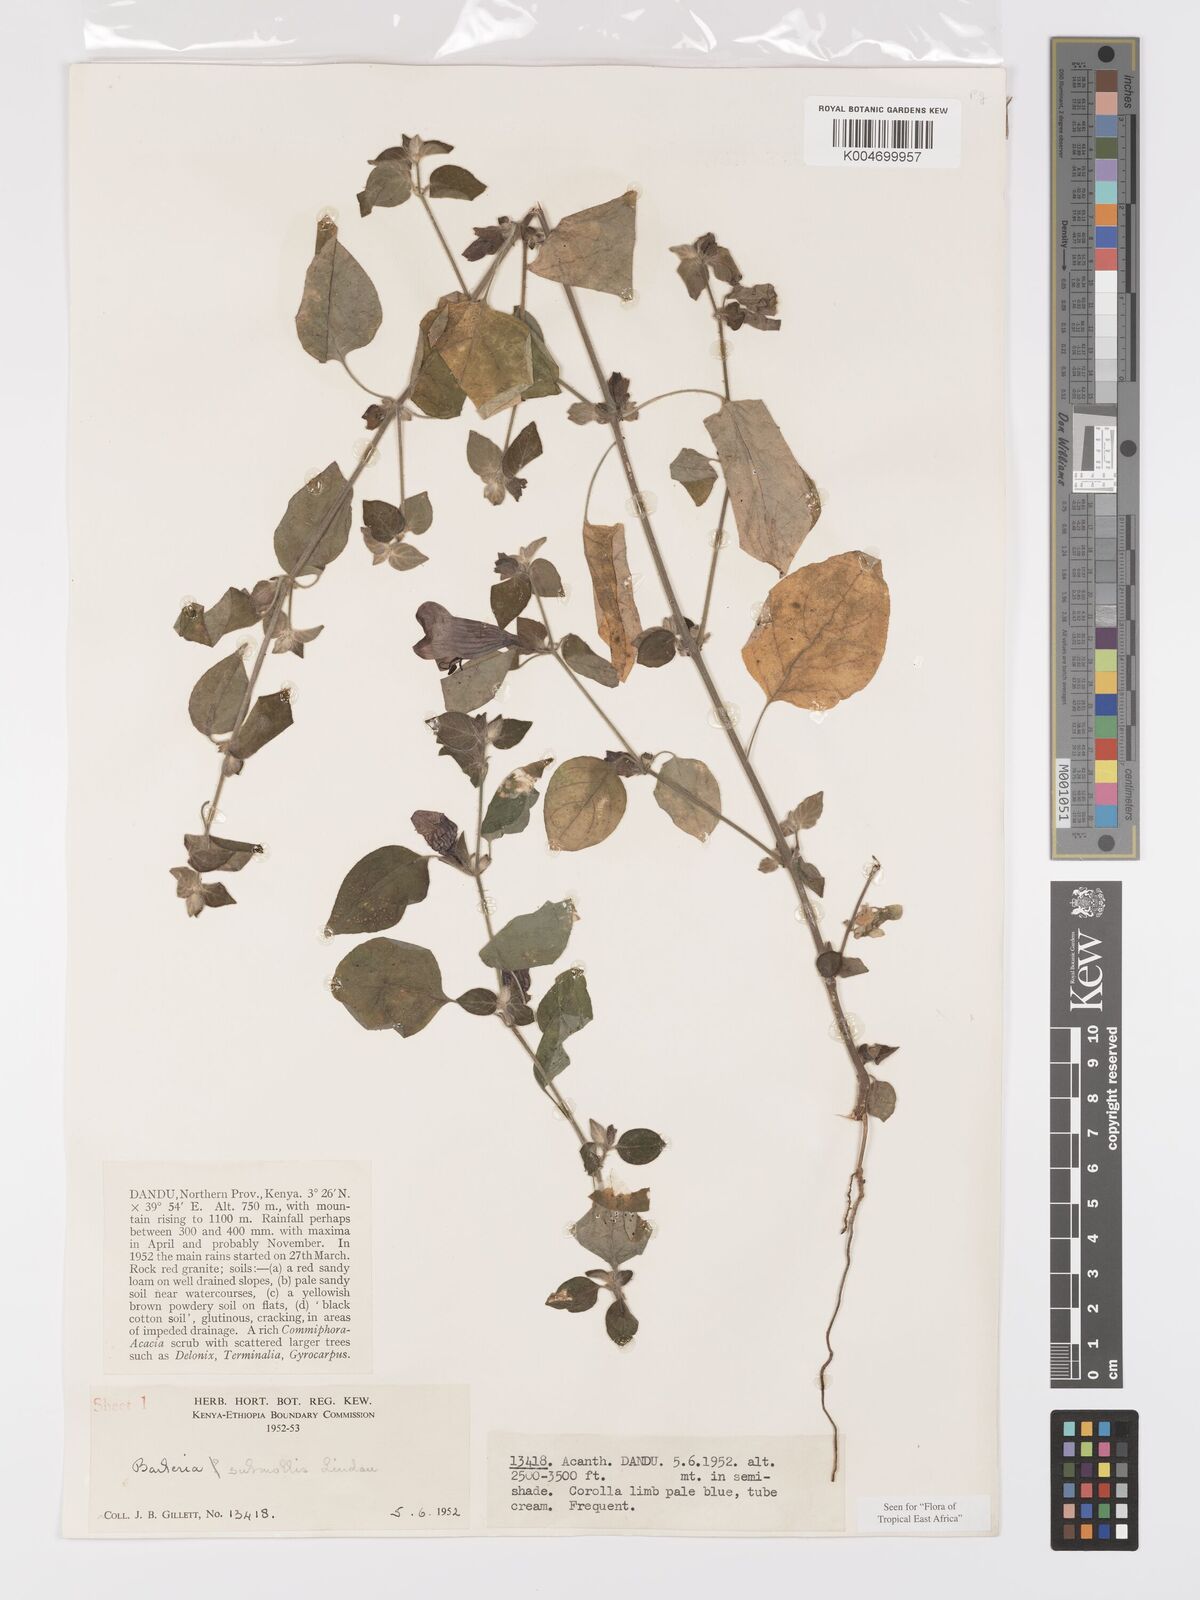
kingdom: Plantae
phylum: Tracheophyta
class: Magnoliopsida
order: Lamiales
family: Acanthaceae
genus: Barleria
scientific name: Barleria submollis
